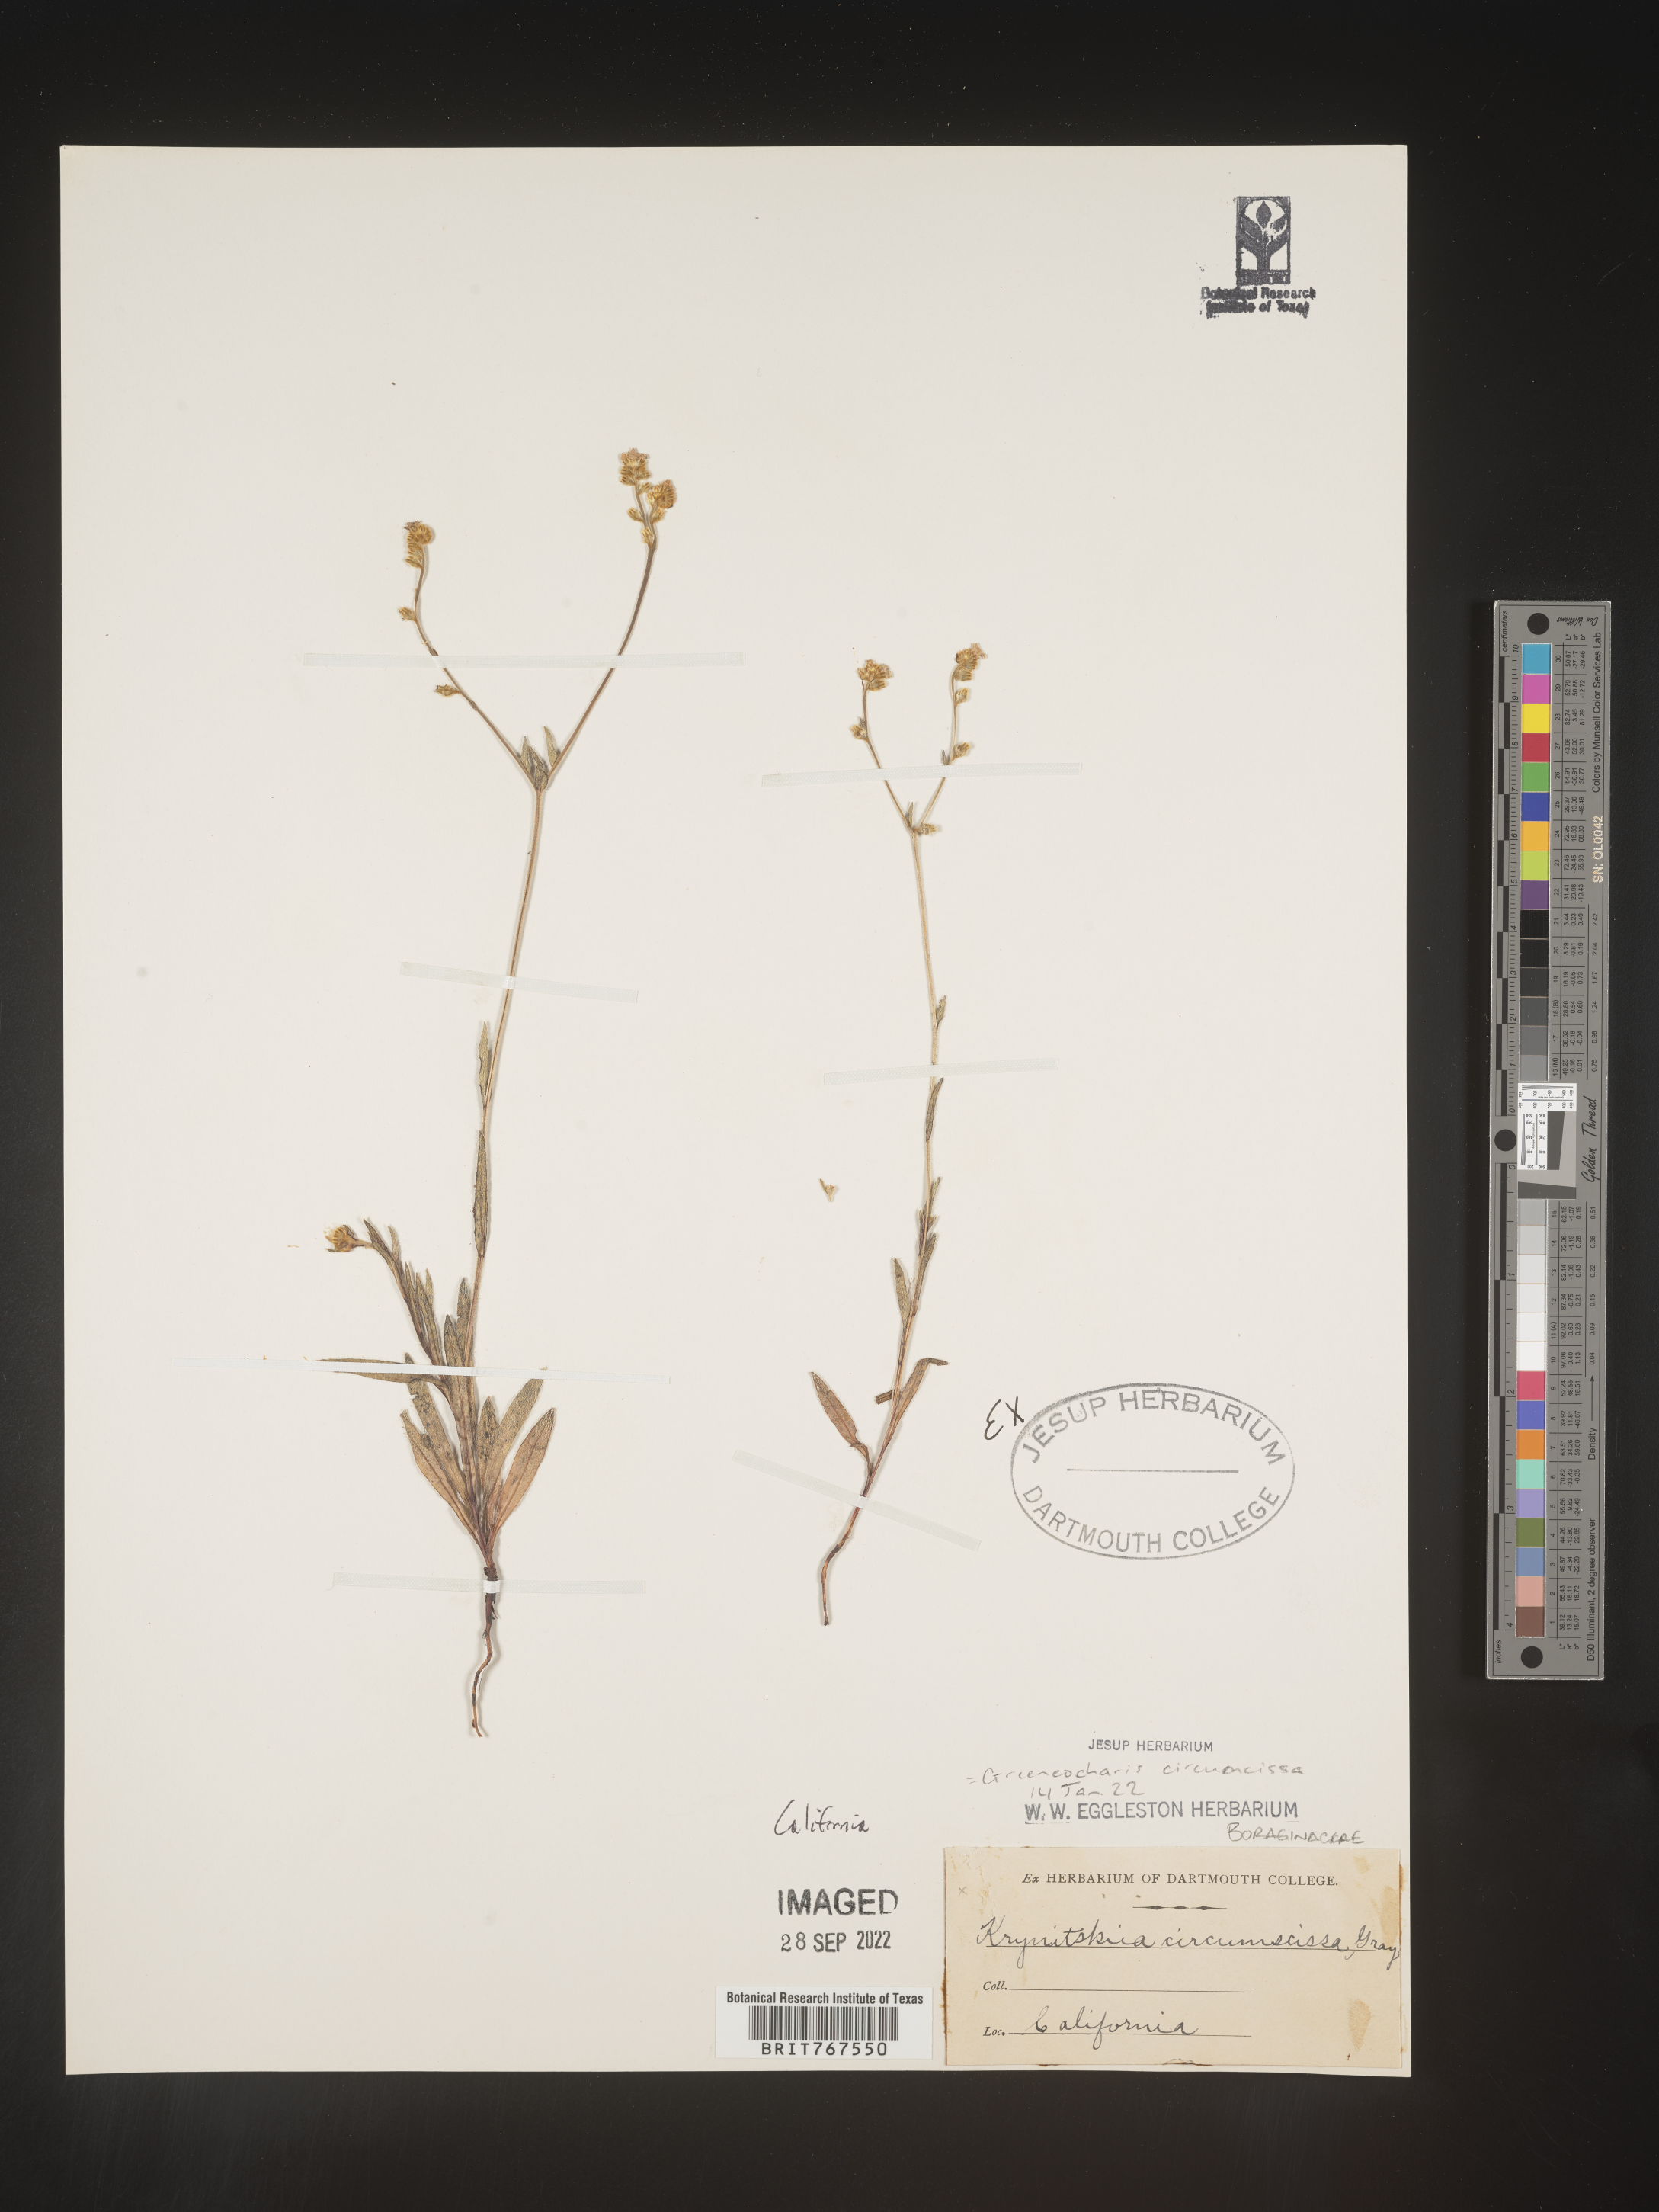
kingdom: Plantae
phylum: Tracheophyta
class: Magnoliopsida
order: Boraginales
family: Boraginaceae
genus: Greeneocharis
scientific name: Greeneocharis
